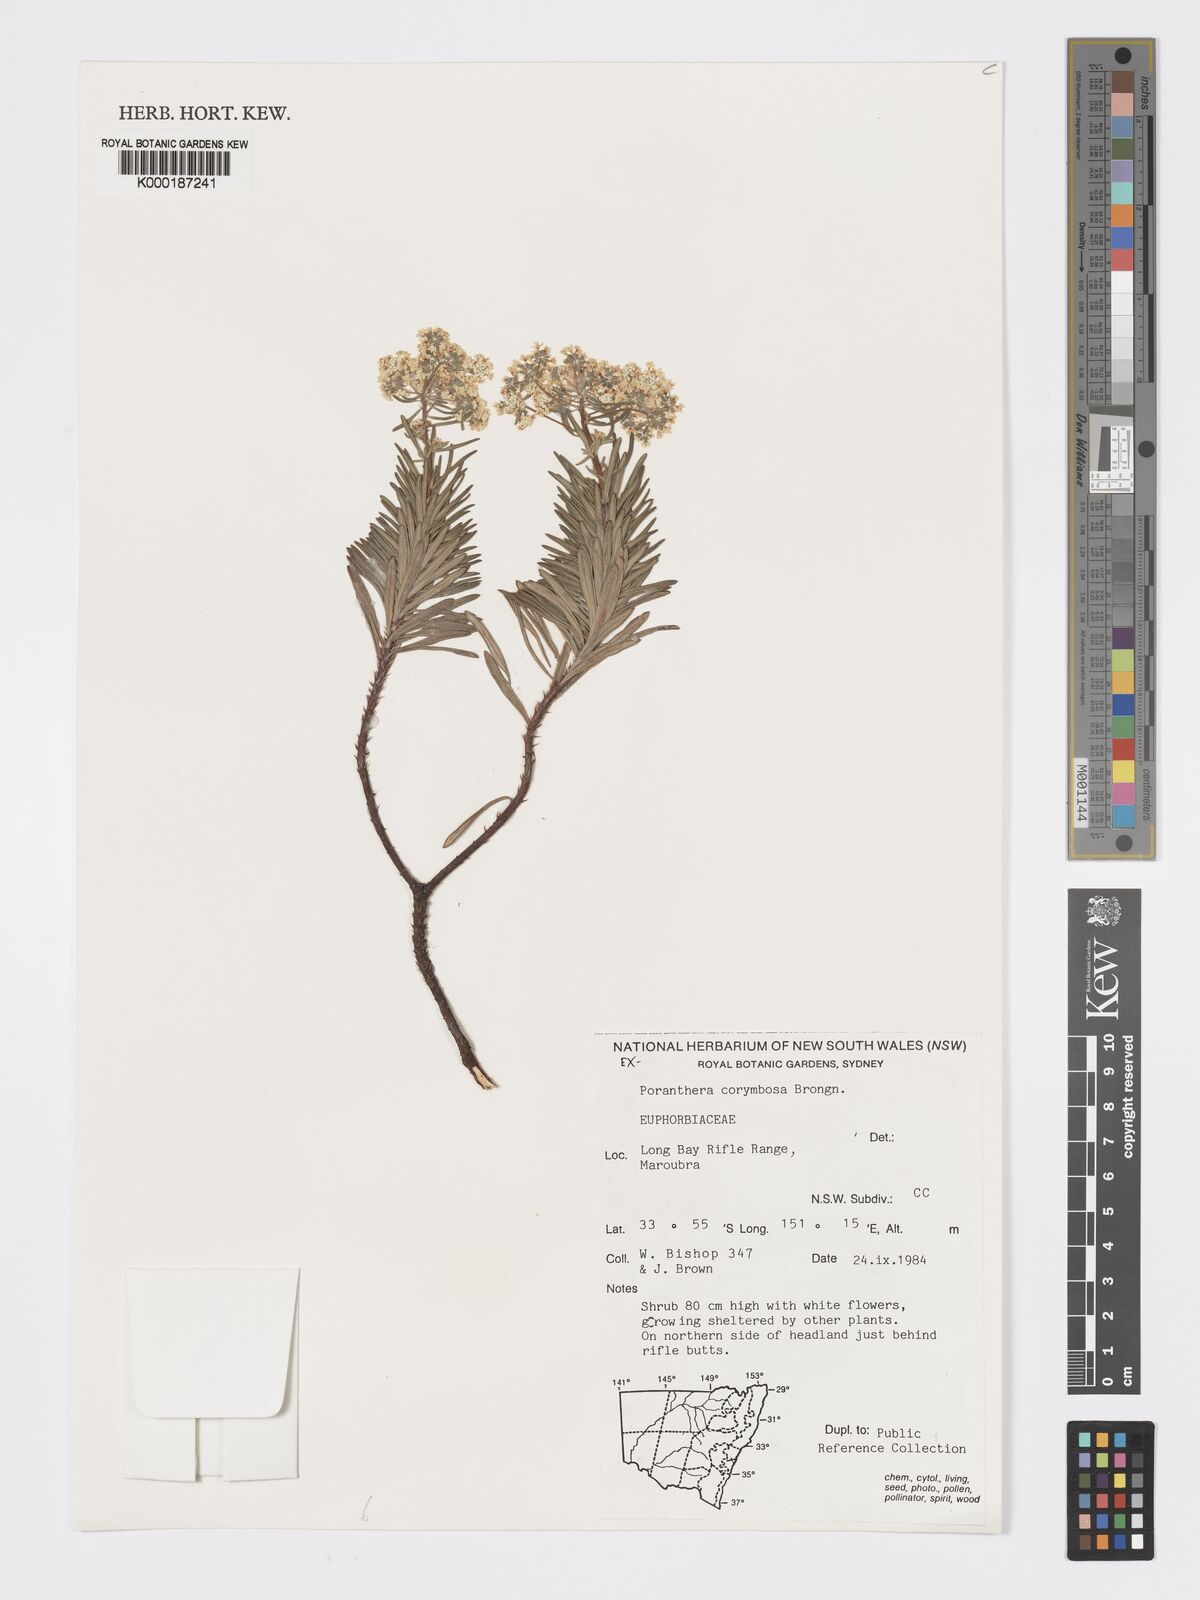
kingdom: Plantae
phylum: Tracheophyta
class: Magnoliopsida
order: Malpighiales
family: Phyllanthaceae
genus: Poranthera
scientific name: Poranthera corymbosa
